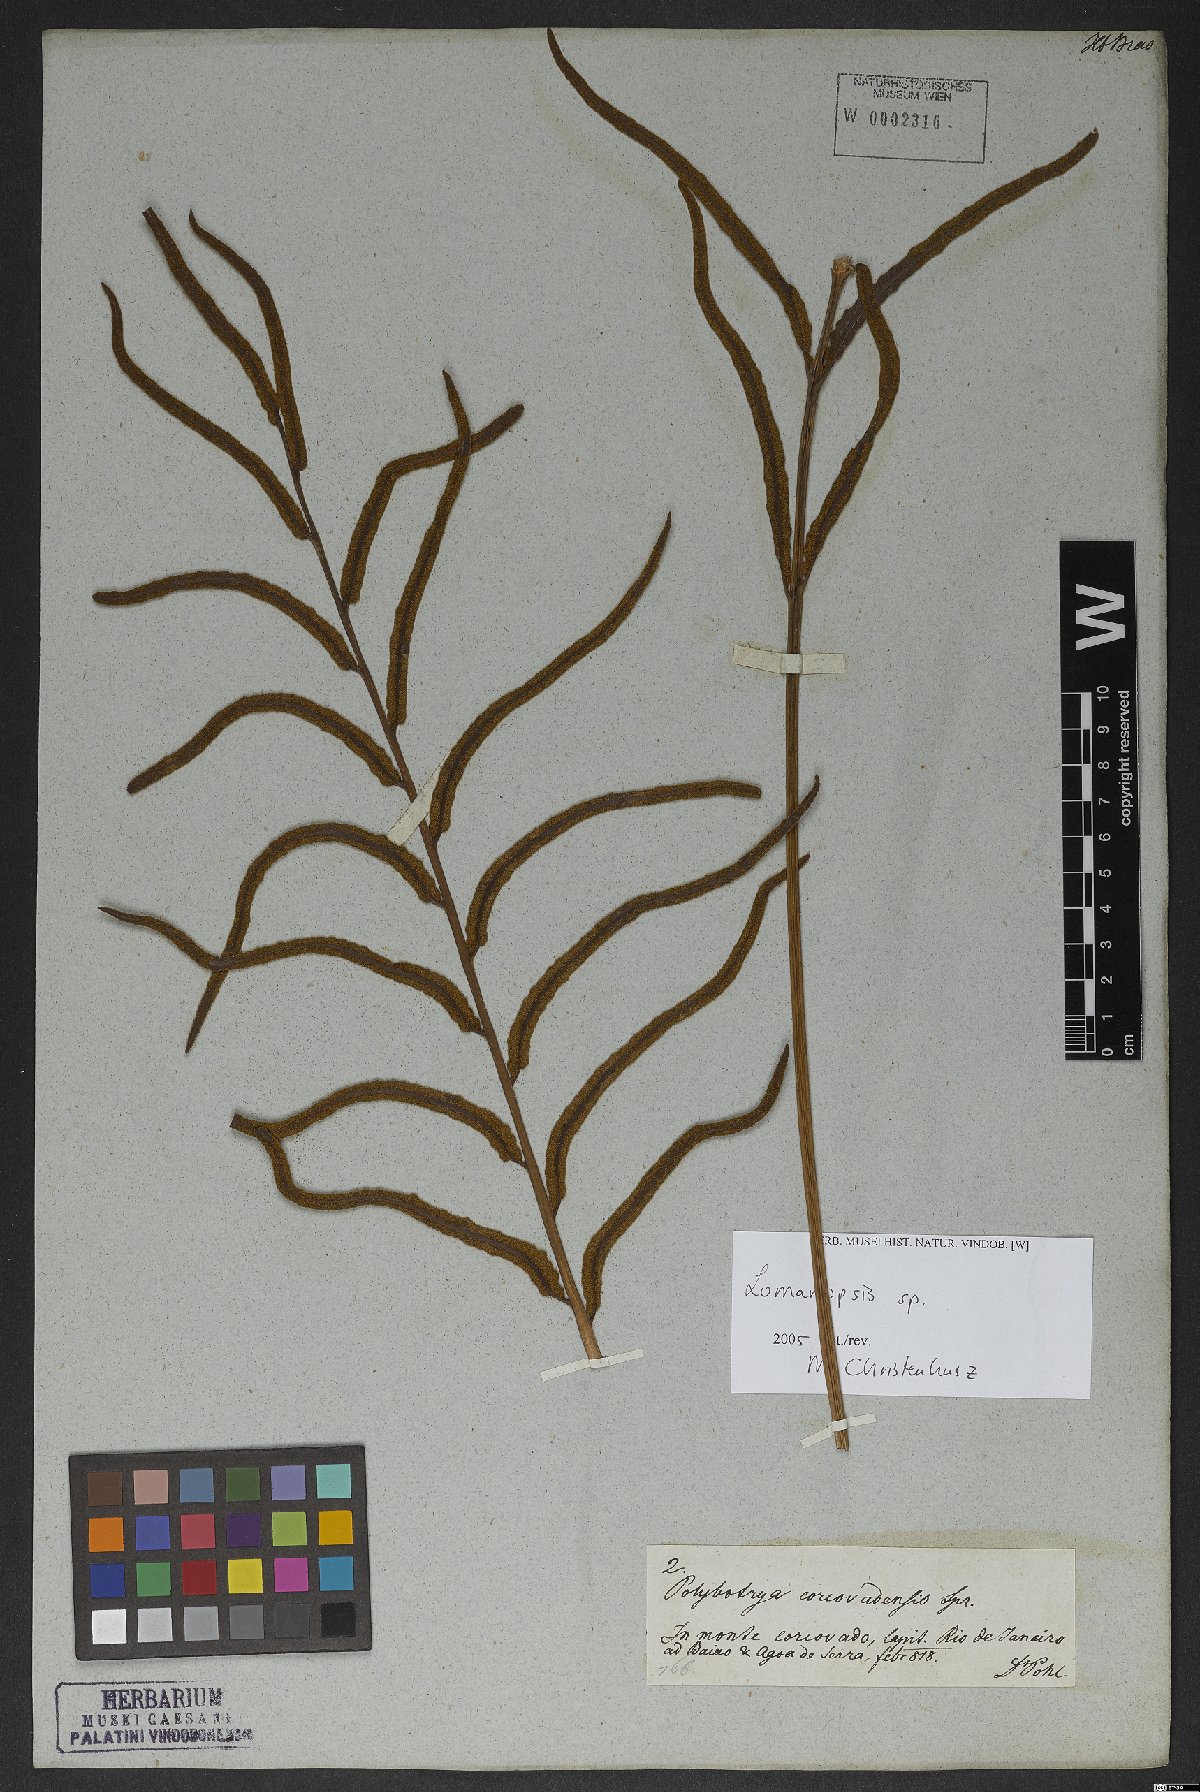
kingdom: Plantae
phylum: Tracheophyta
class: Polypodiopsida
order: Polypodiales
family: Lomariopsidaceae
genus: Lomariopsis
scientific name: Lomariopsis
